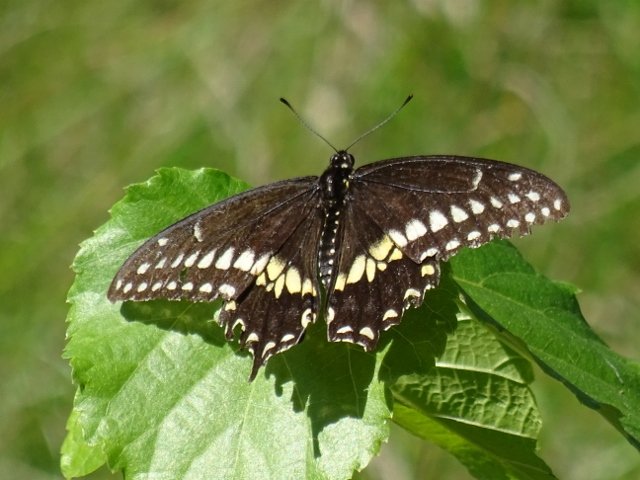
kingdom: Animalia
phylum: Arthropoda
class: Insecta
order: Lepidoptera
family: Papilionidae
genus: Papilio
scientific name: Papilio polyxenes
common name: Black Swallowtail
